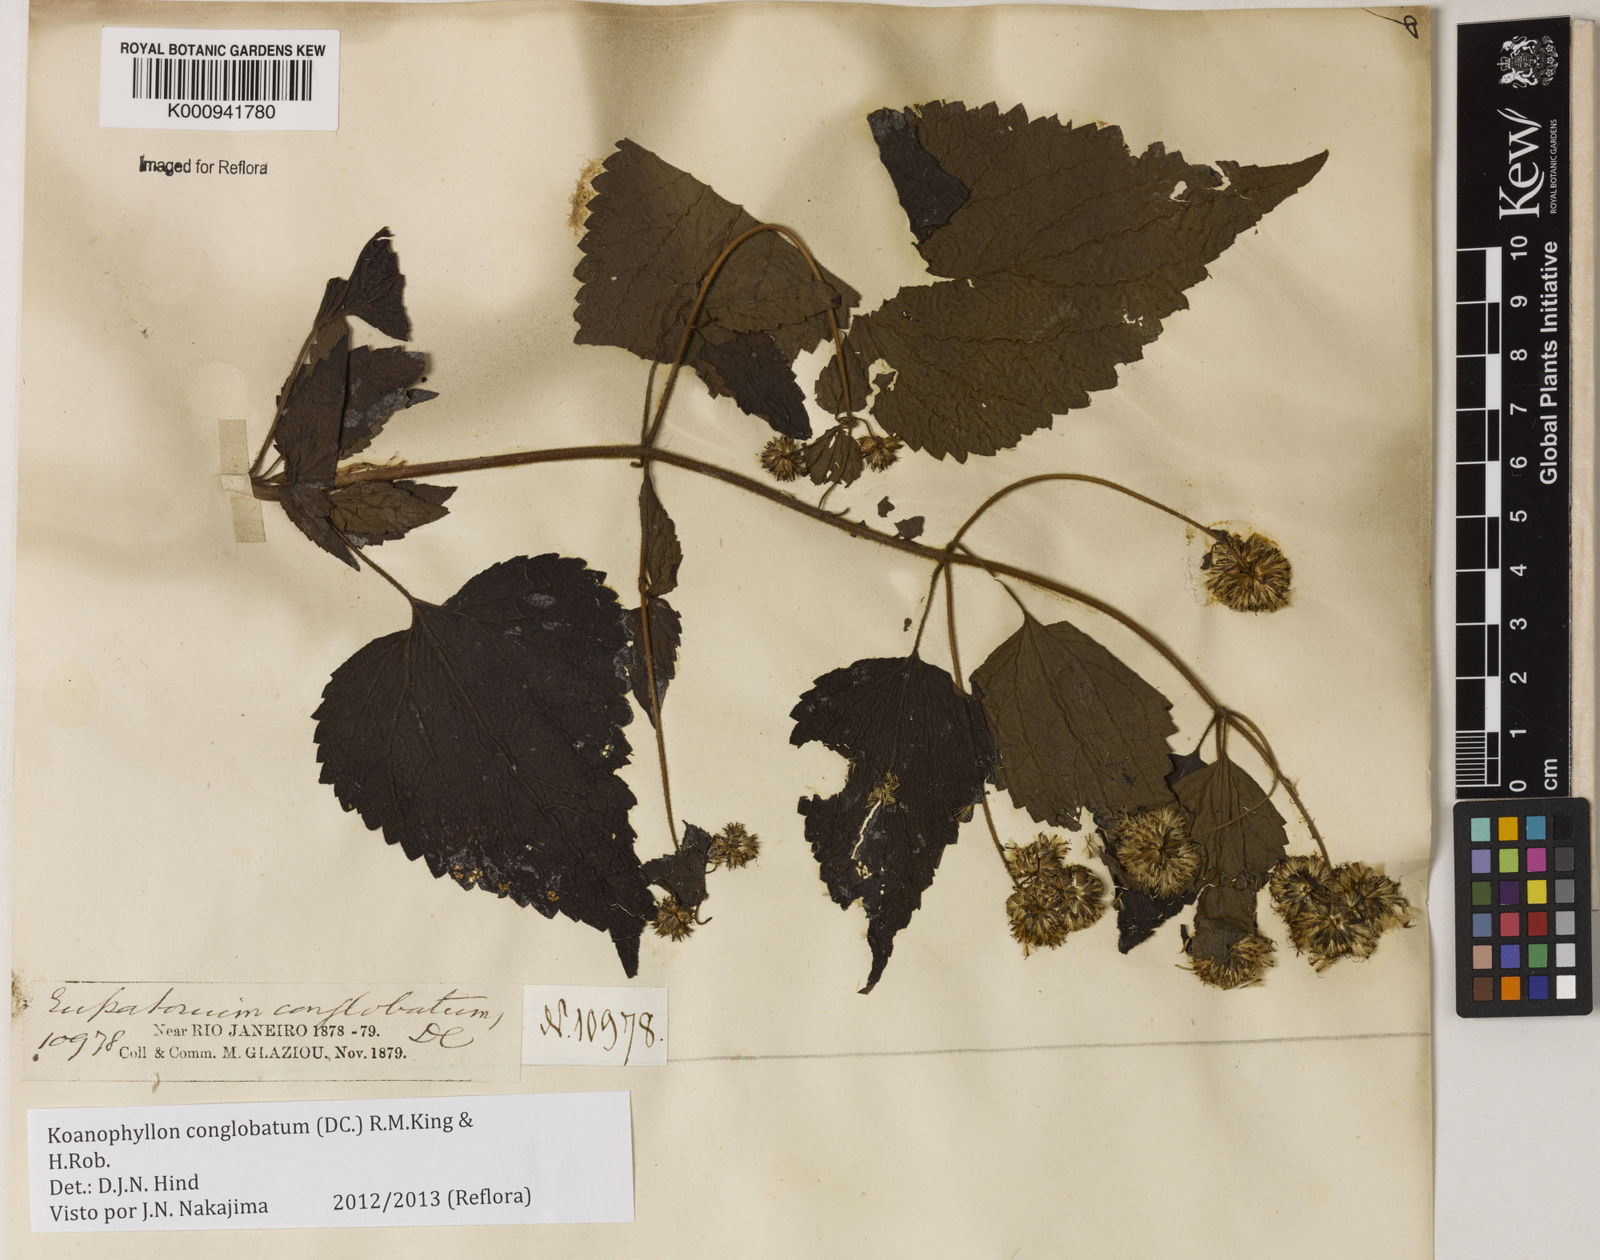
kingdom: Plantae
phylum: Tracheophyta
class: Magnoliopsida
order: Asterales
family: Asteraceae
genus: Koanophyllon
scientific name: Koanophyllon conglobatum
